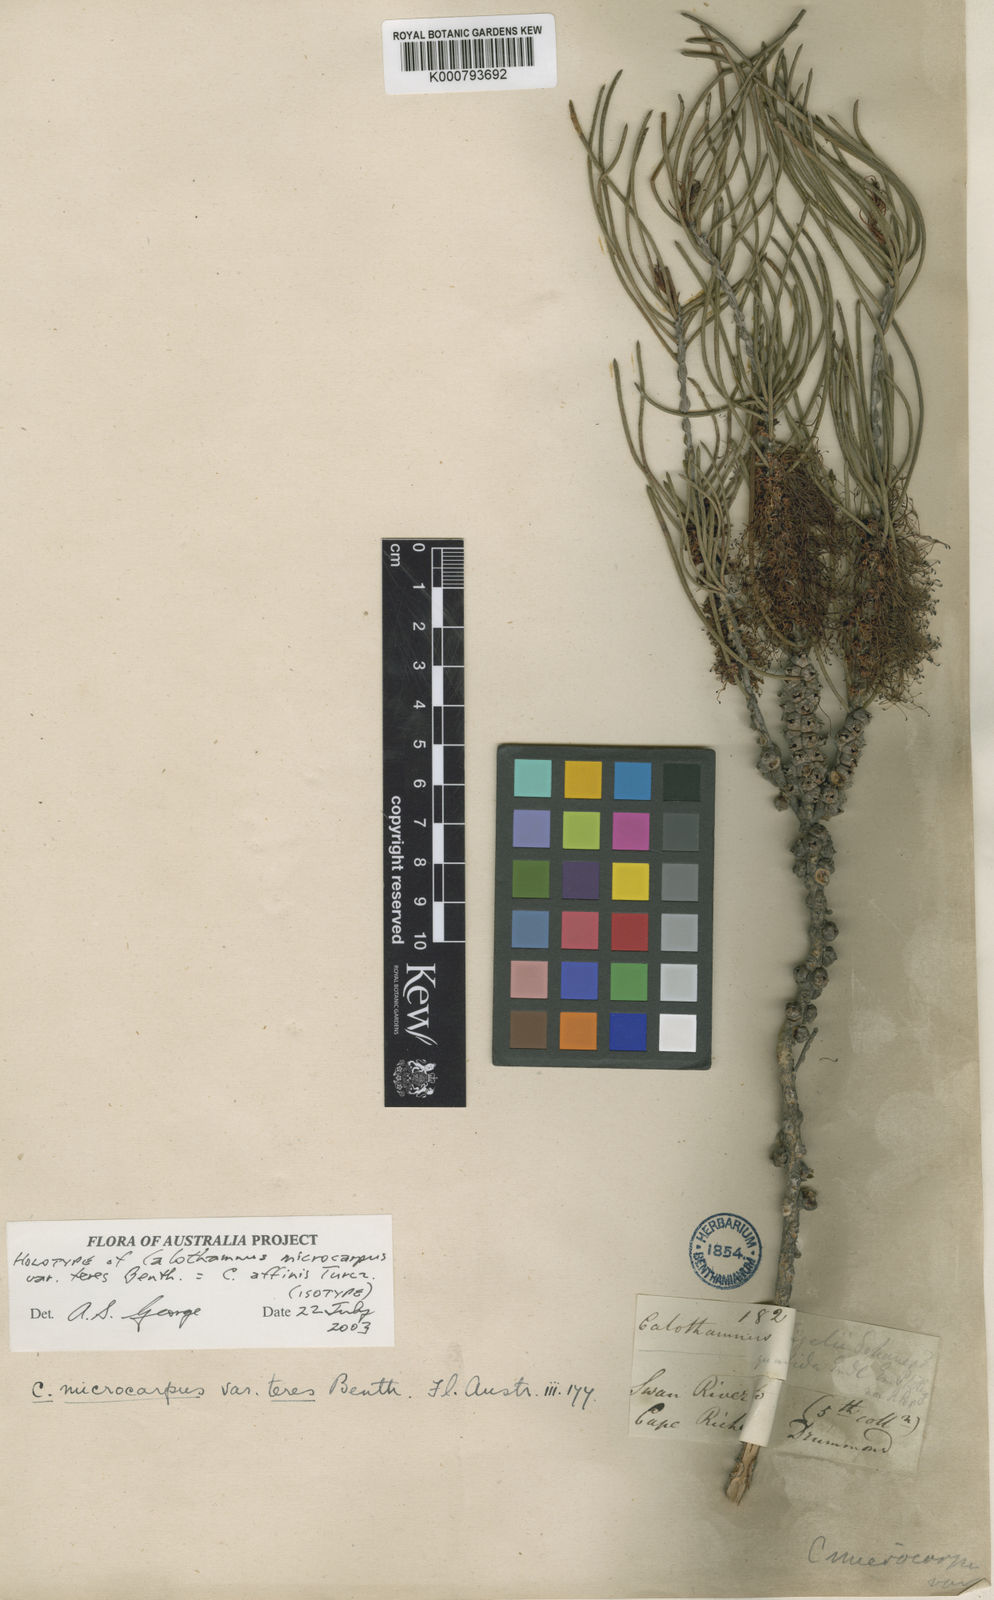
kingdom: Plantae
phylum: Tracheophyta
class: Magnoliopsida
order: Myrtales
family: Myrtaceae
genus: Melaleuca
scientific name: Melaleuca relativa
